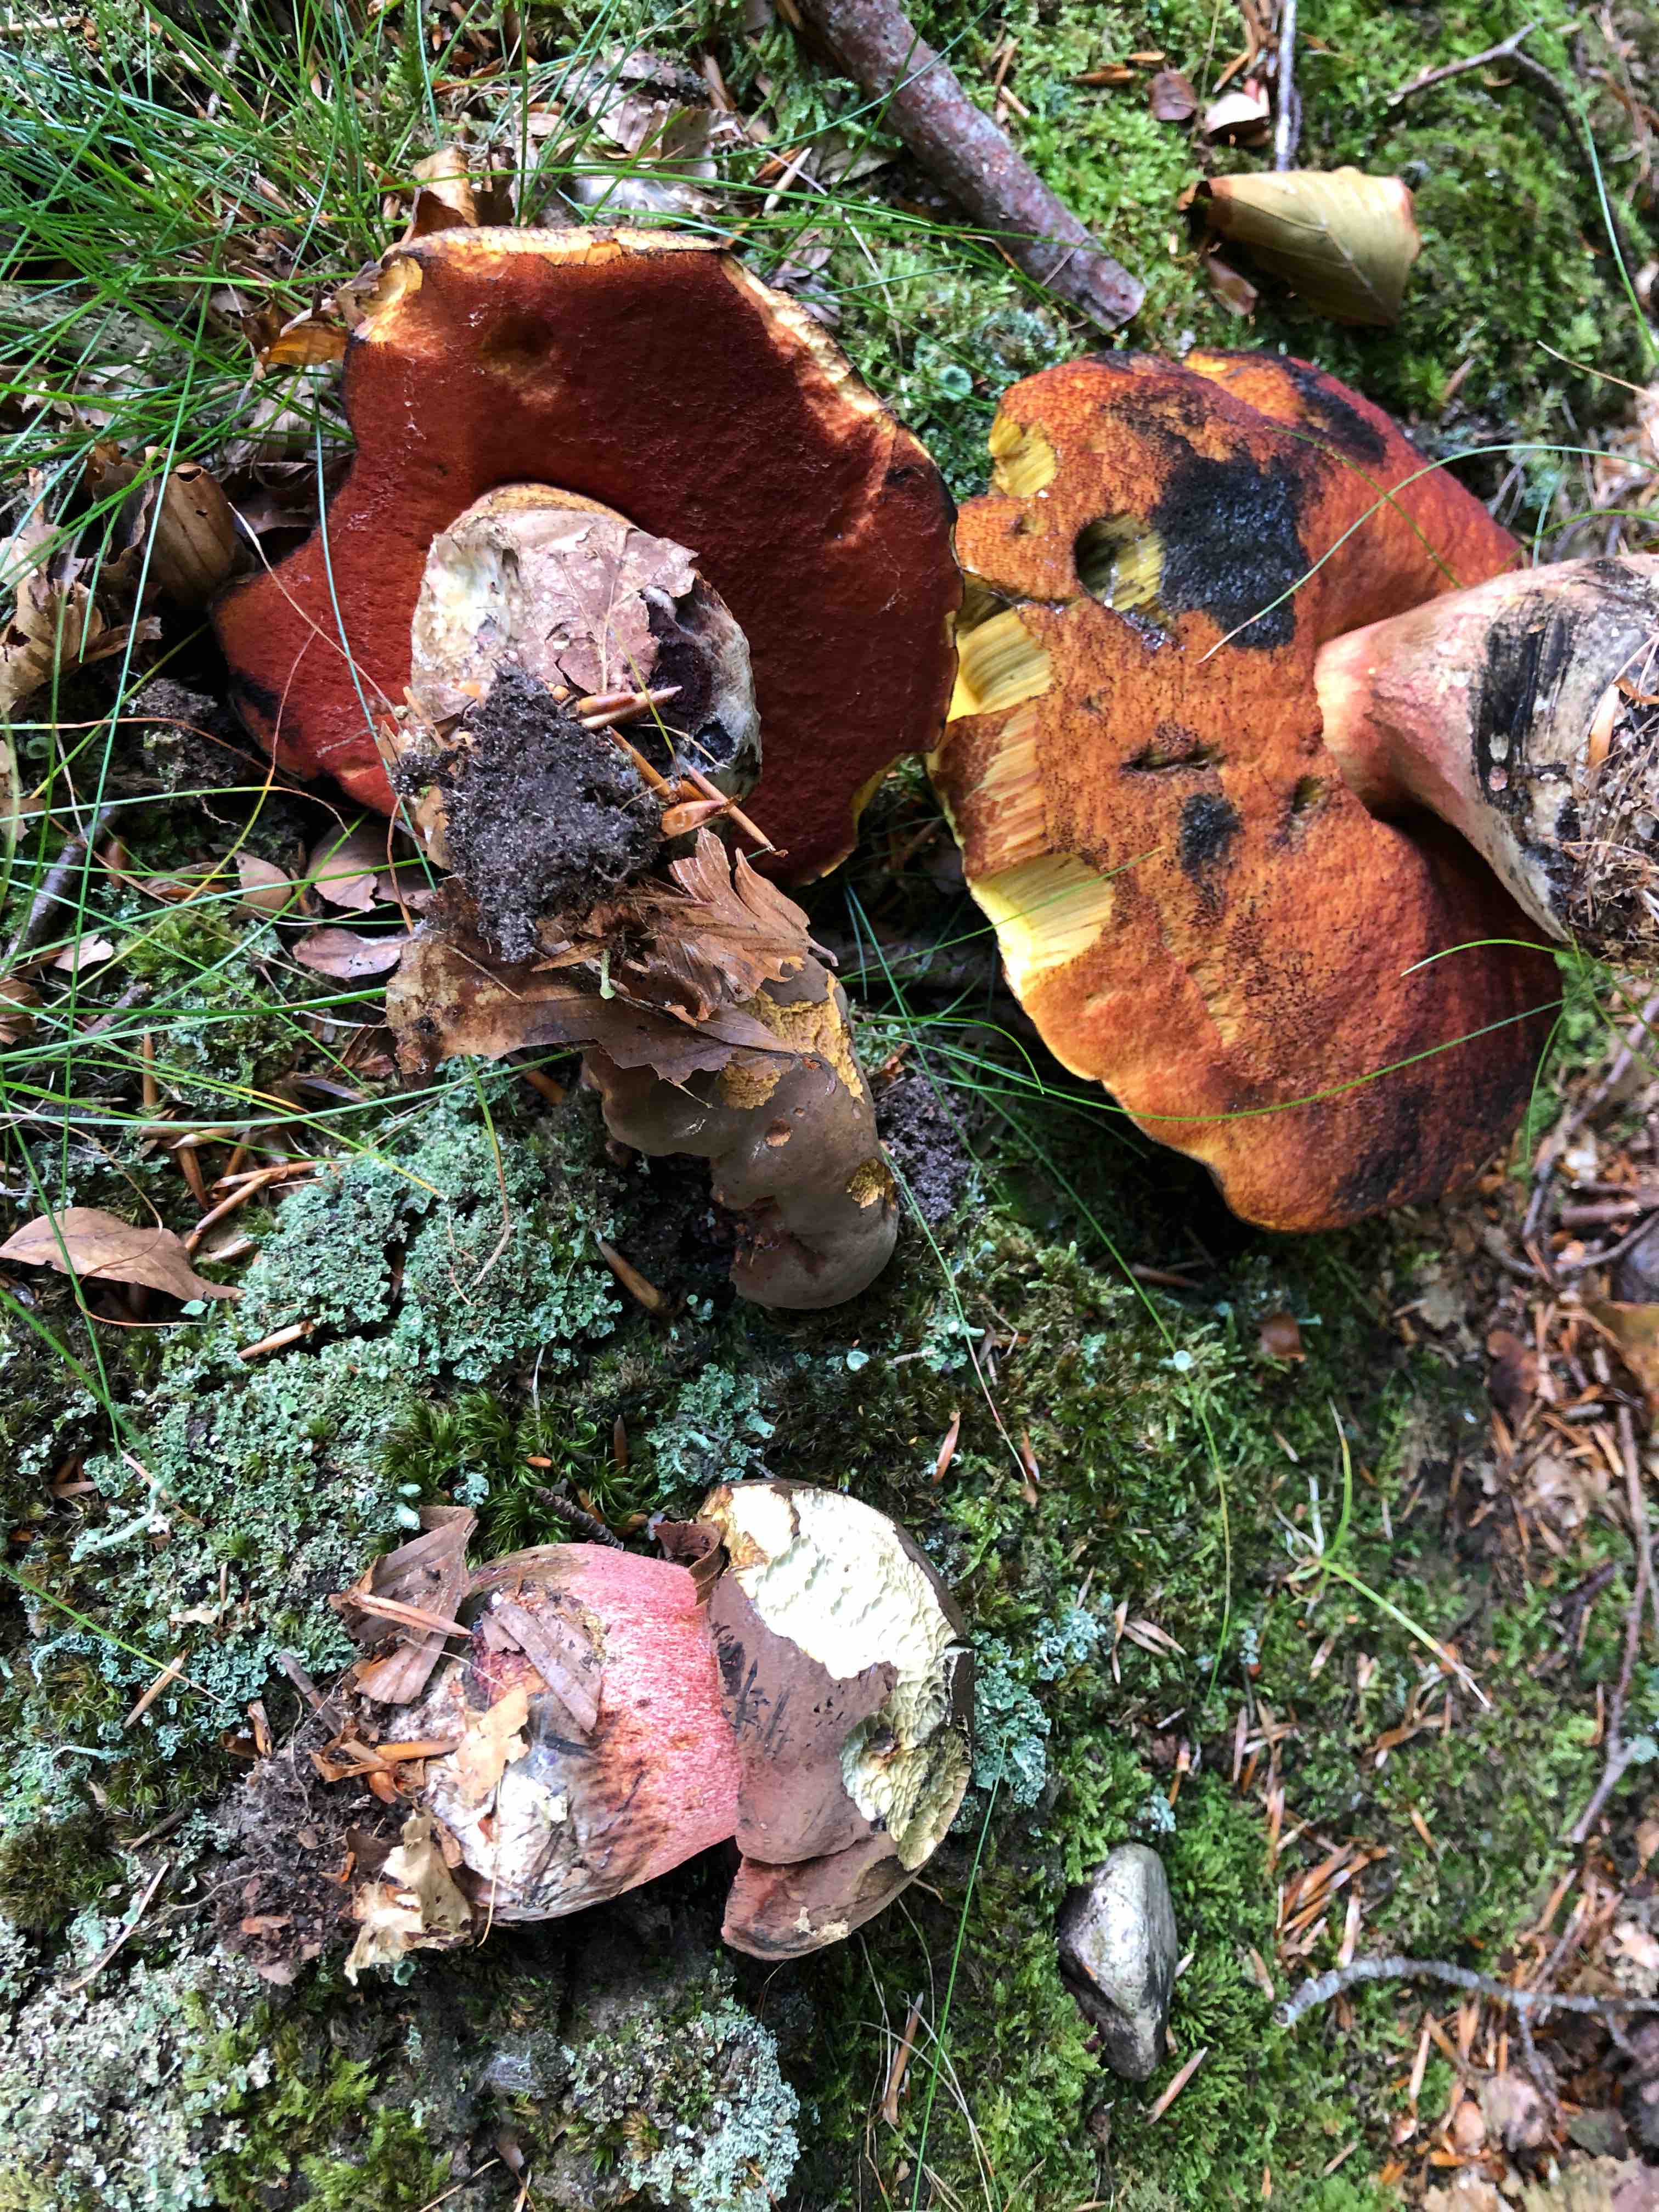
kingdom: Fungi
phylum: Basidiomycota
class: Agaricomycetes
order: Boletales
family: Boletaceae
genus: Neoboletus
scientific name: Neoboletus erythropus
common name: punktstokket indigorørhat
